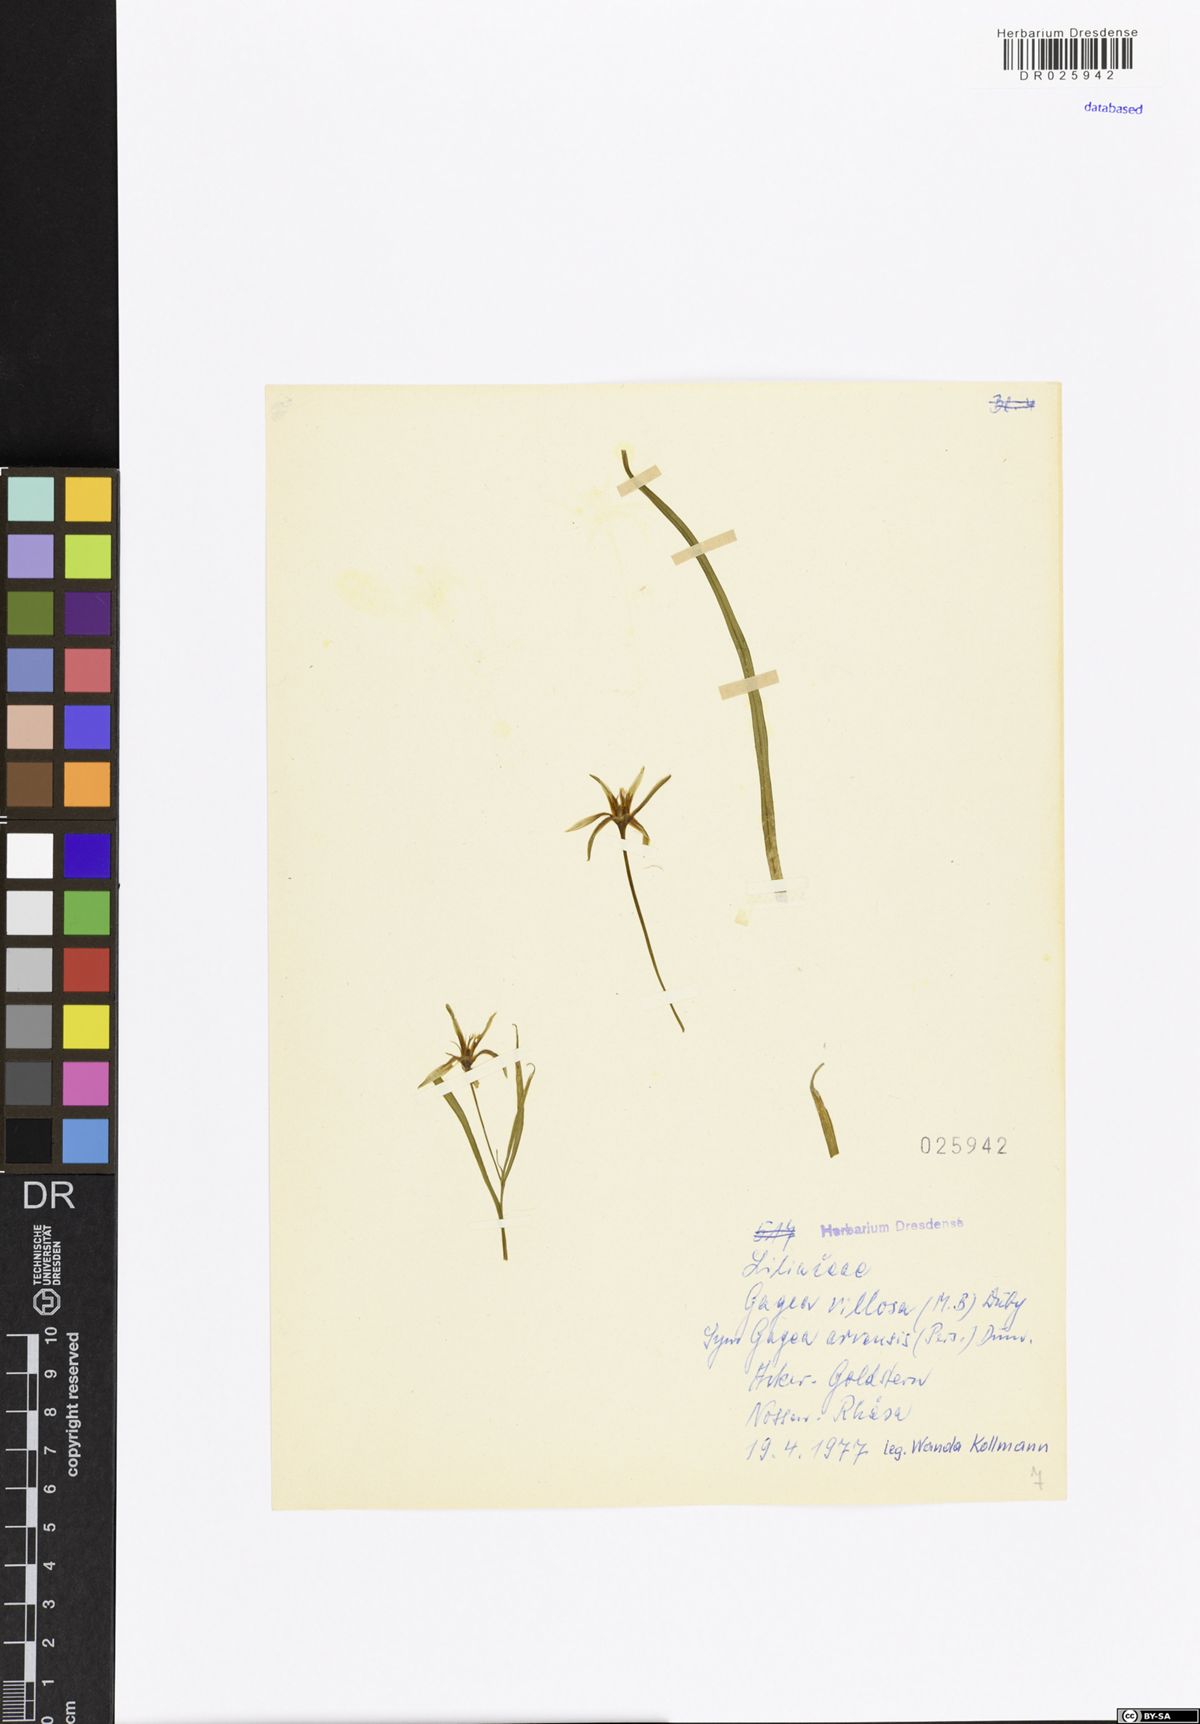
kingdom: Plantae
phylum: Tracheophyta
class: Liliopsida
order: Liliales
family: Liliaceae
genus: Gagea
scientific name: Gagea villosa
